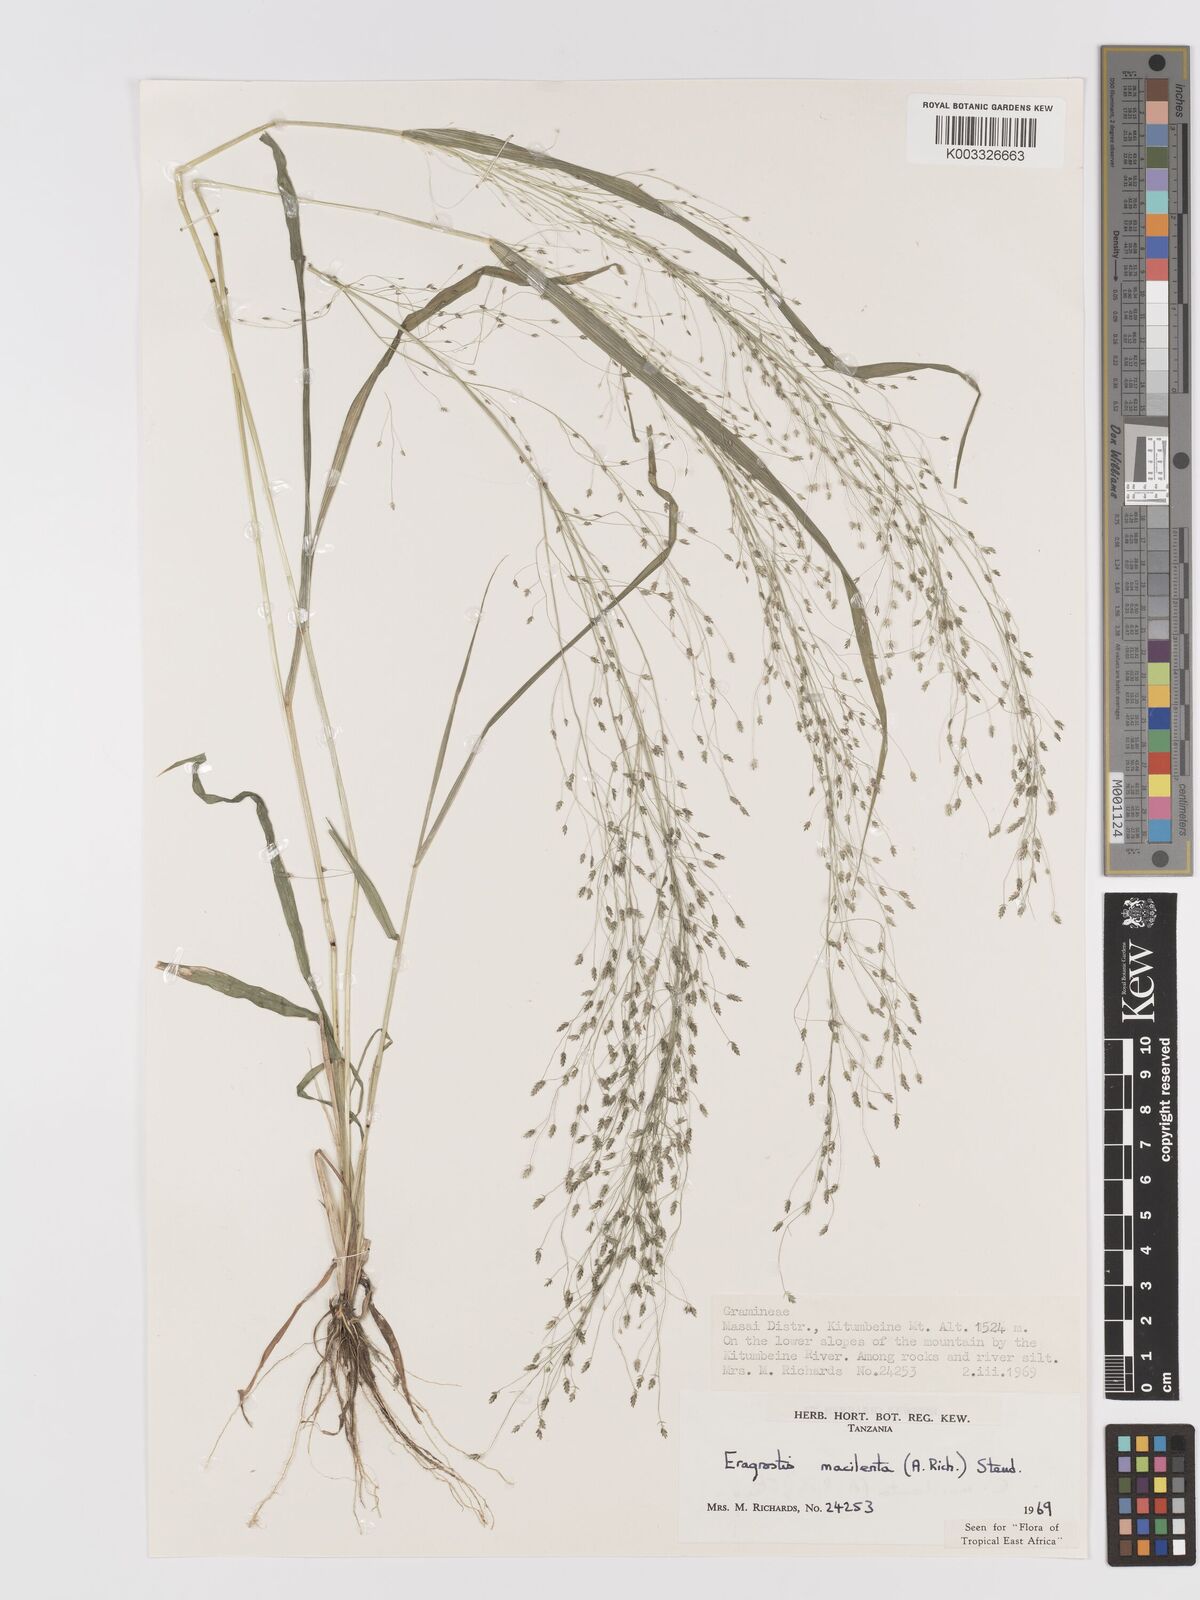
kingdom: Plantae
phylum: Tracheophyta
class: Liliopsida
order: Poales
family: Poaceae
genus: Eragrostis
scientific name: Eragrostis macilenta
